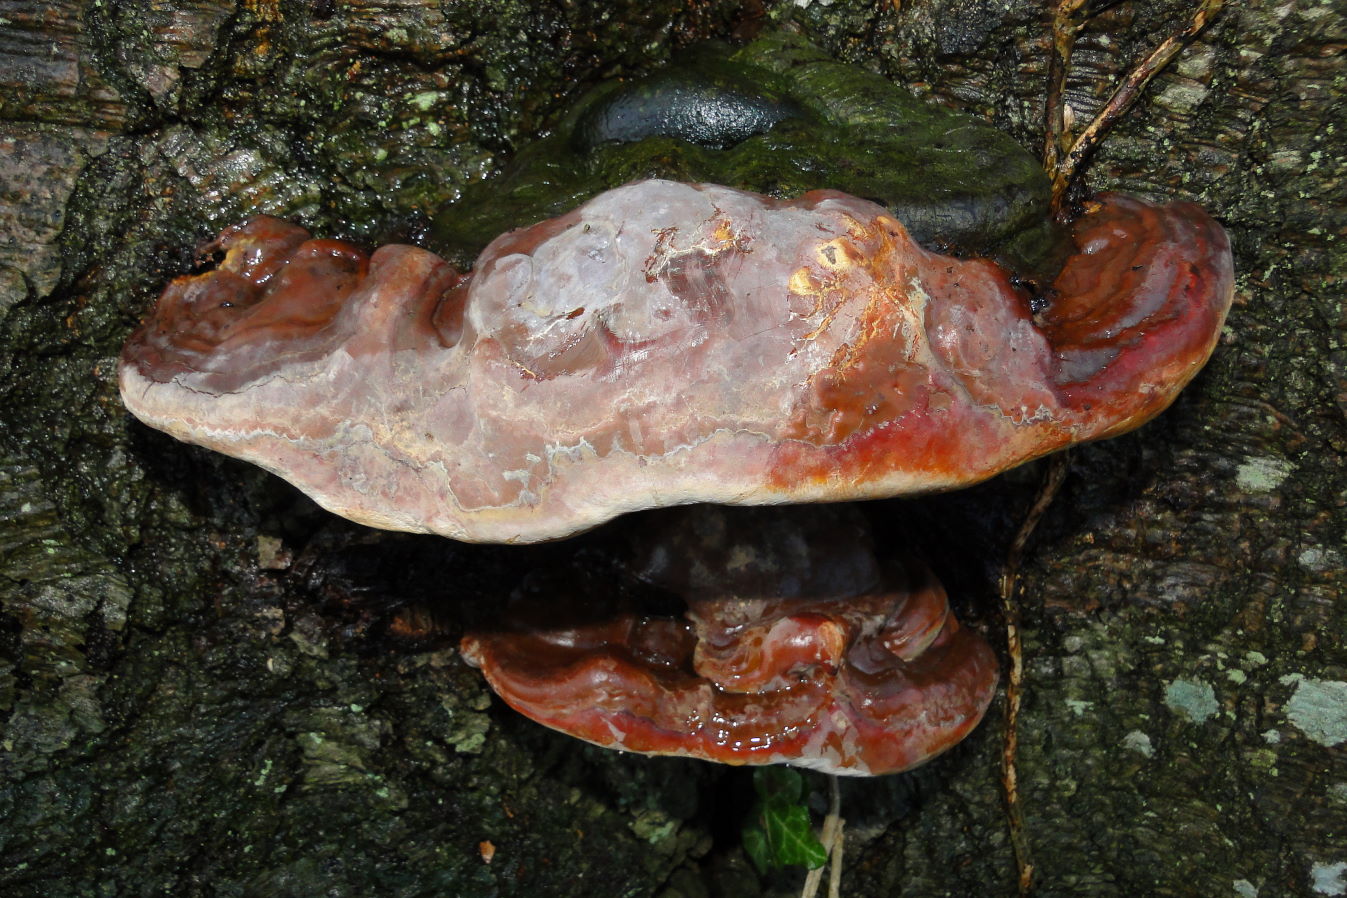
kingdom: Fungi
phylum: Basidiomycota
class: Agaricomycetes
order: Polyporales
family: Polyporaceae
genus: Ganoderma
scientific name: Ganoderma pfeifferi
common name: kobberrød lakporesvamp
